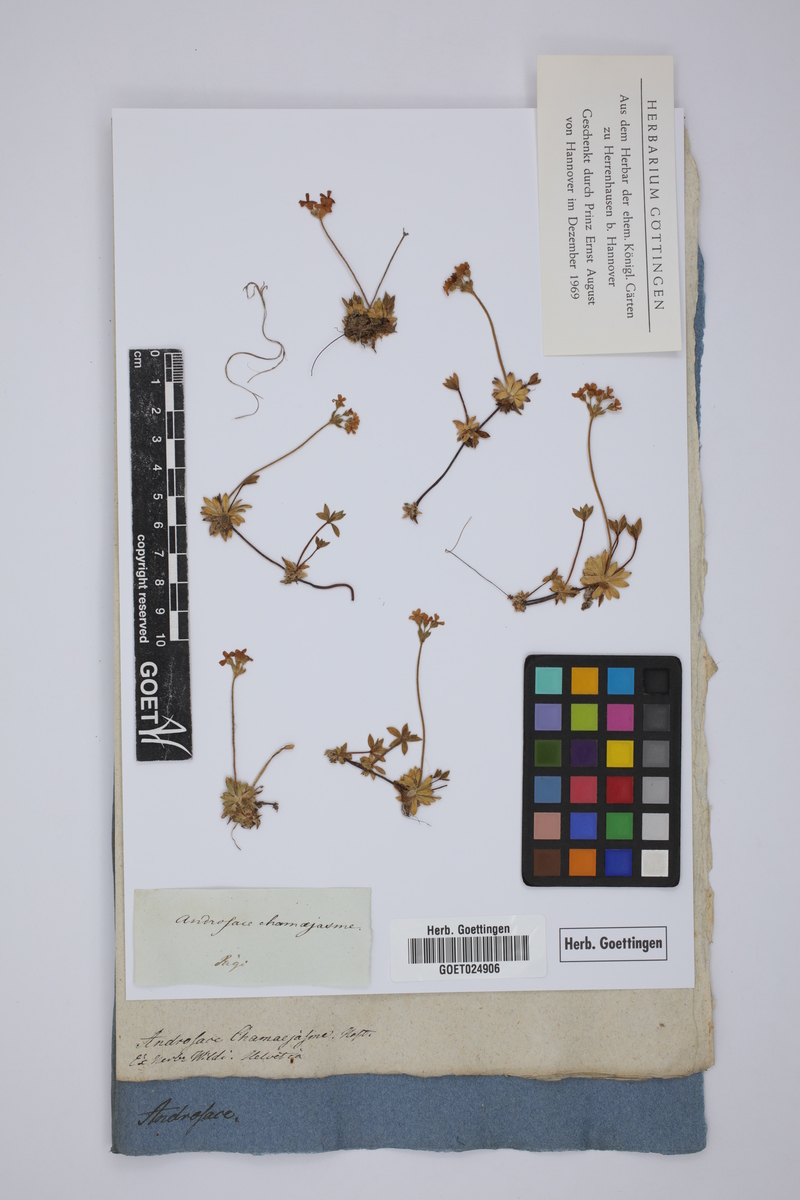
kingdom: Plantae
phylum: Tracheophyta
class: Magnoliopsida
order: Ericales
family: Primulaceae
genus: Androsace
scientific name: Androsace chamaejasme
